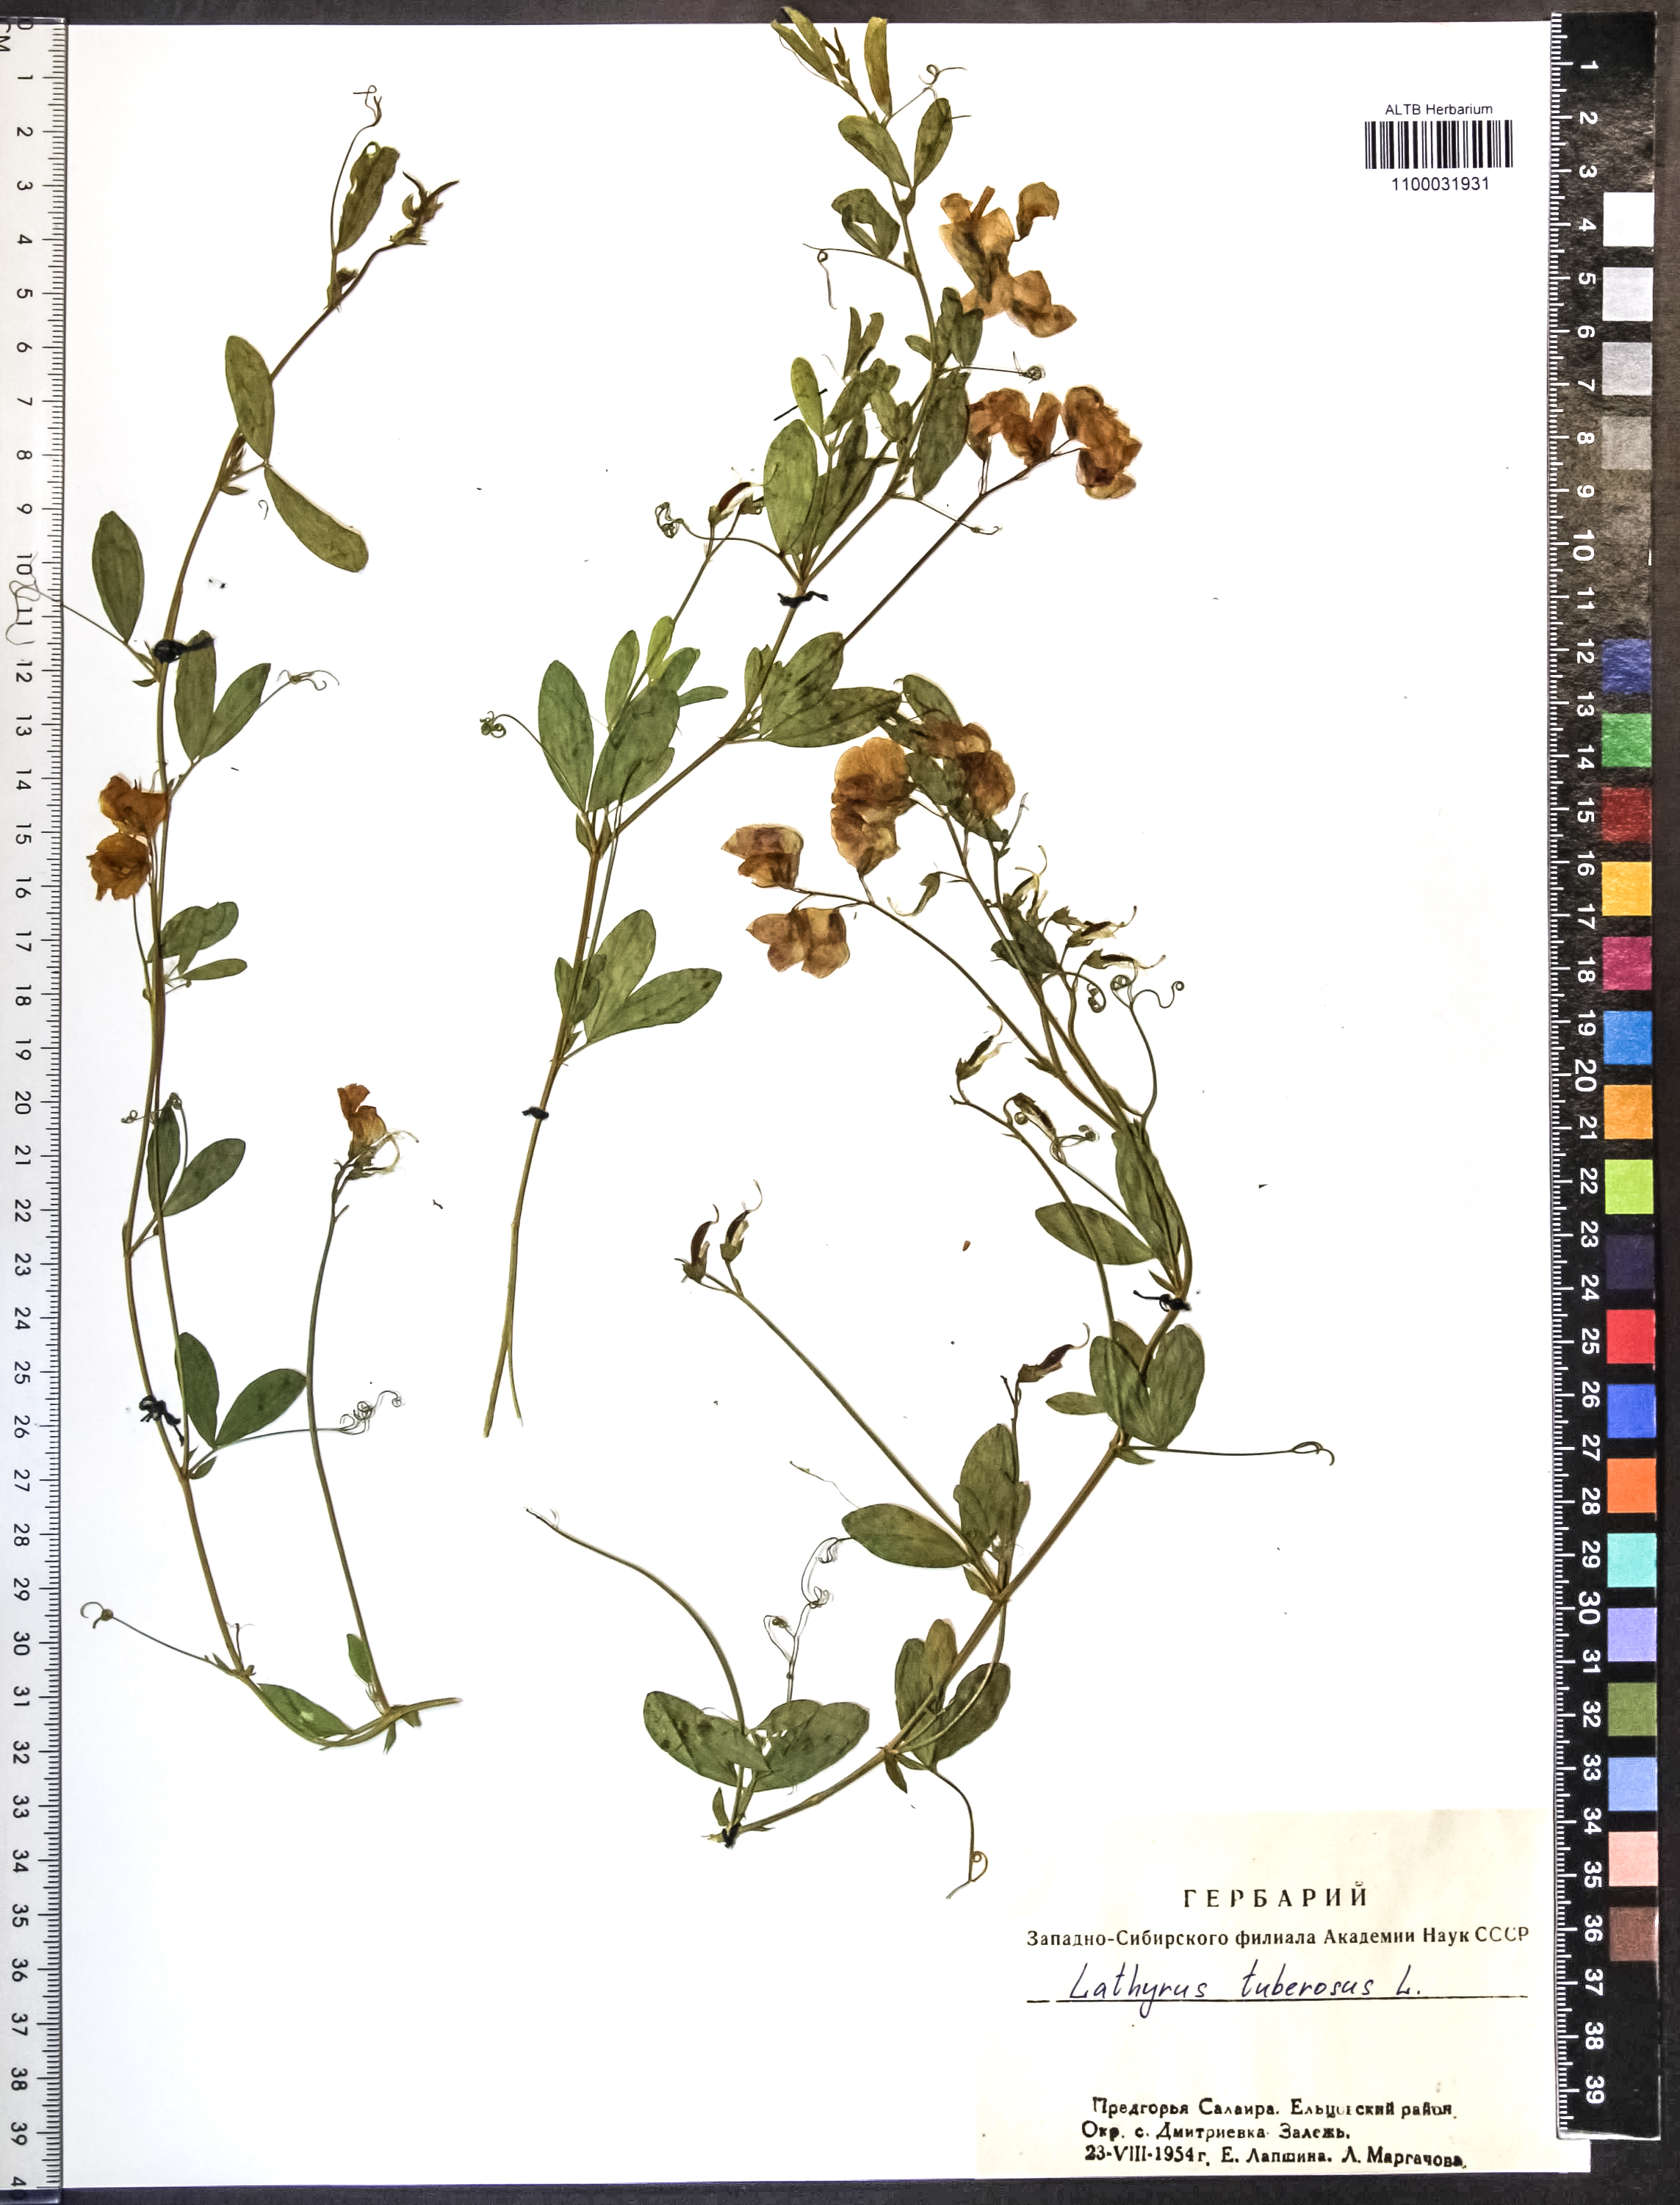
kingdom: Plantae
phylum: Tracheophyta
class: Magnoliopsida
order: Fabales
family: Fabaceae
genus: Lathyrus
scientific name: Lathyrus tuberosus
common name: Tuberous pea
